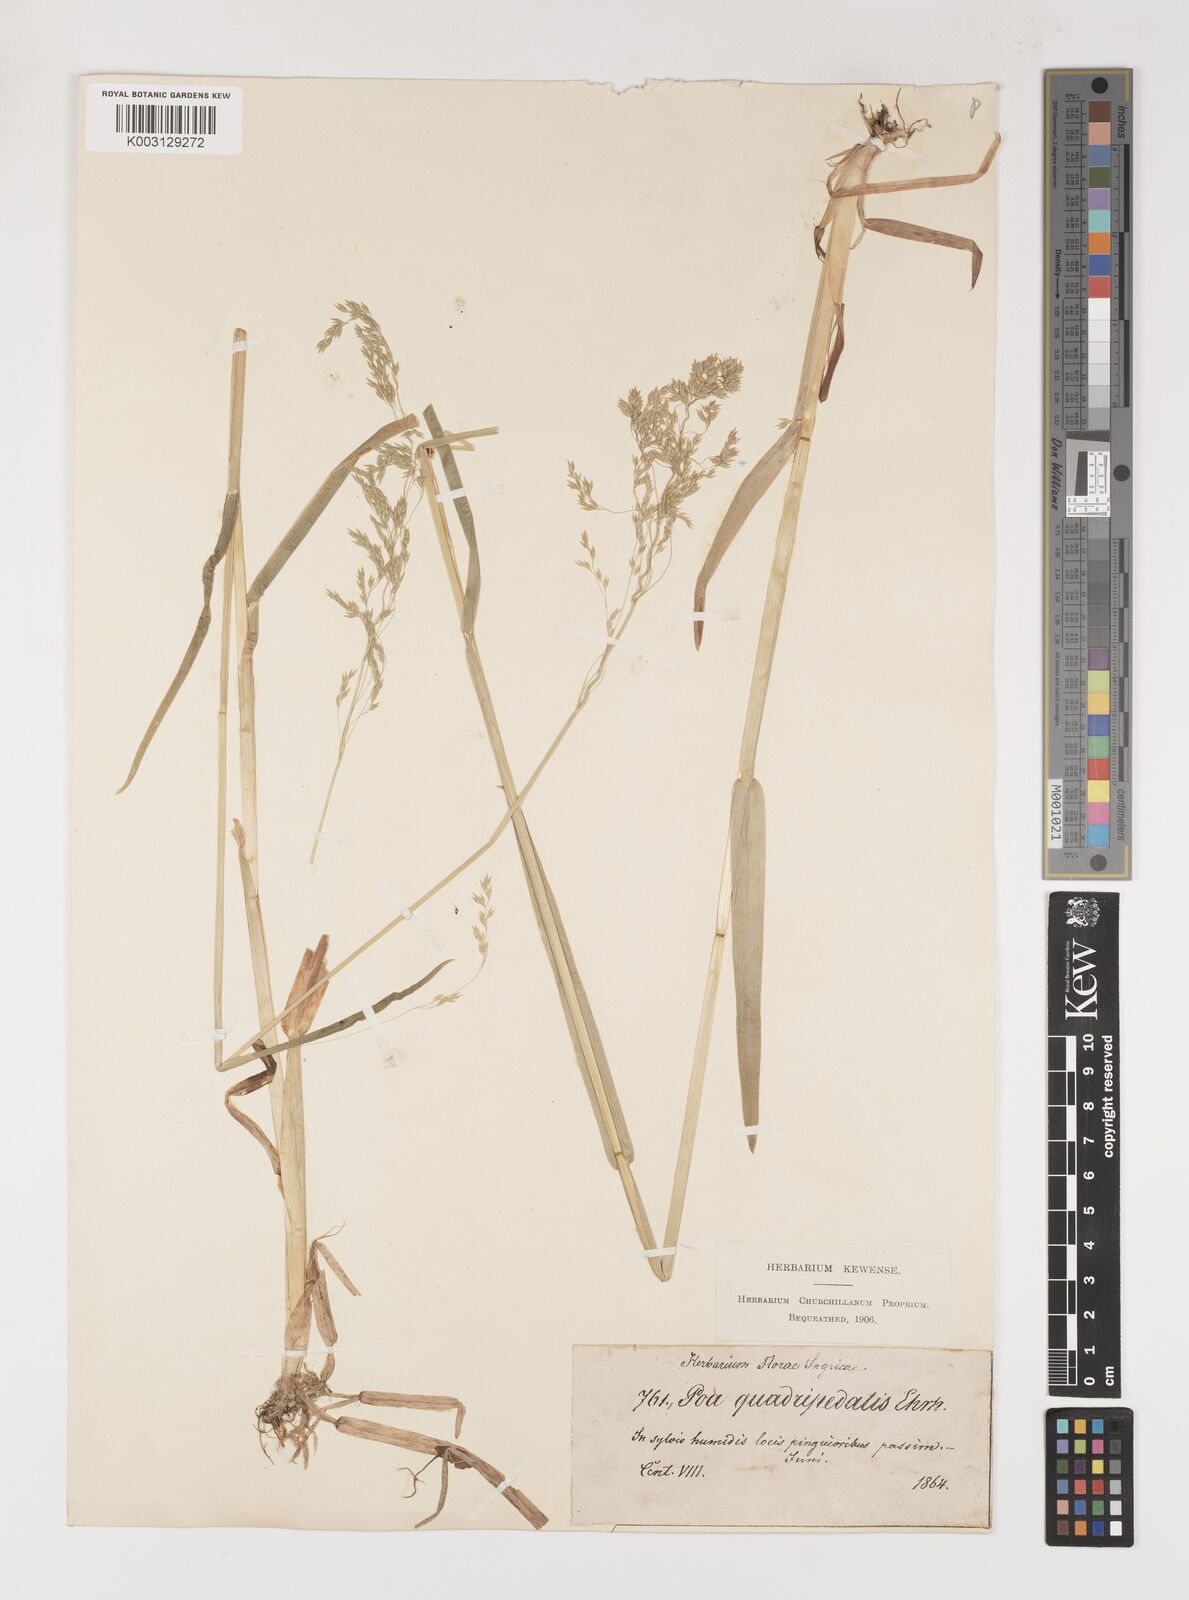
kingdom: Plantae
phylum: Tracheophyta
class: Liliopsida
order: Poales
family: Poaceae
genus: Poa
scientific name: Poa remota
